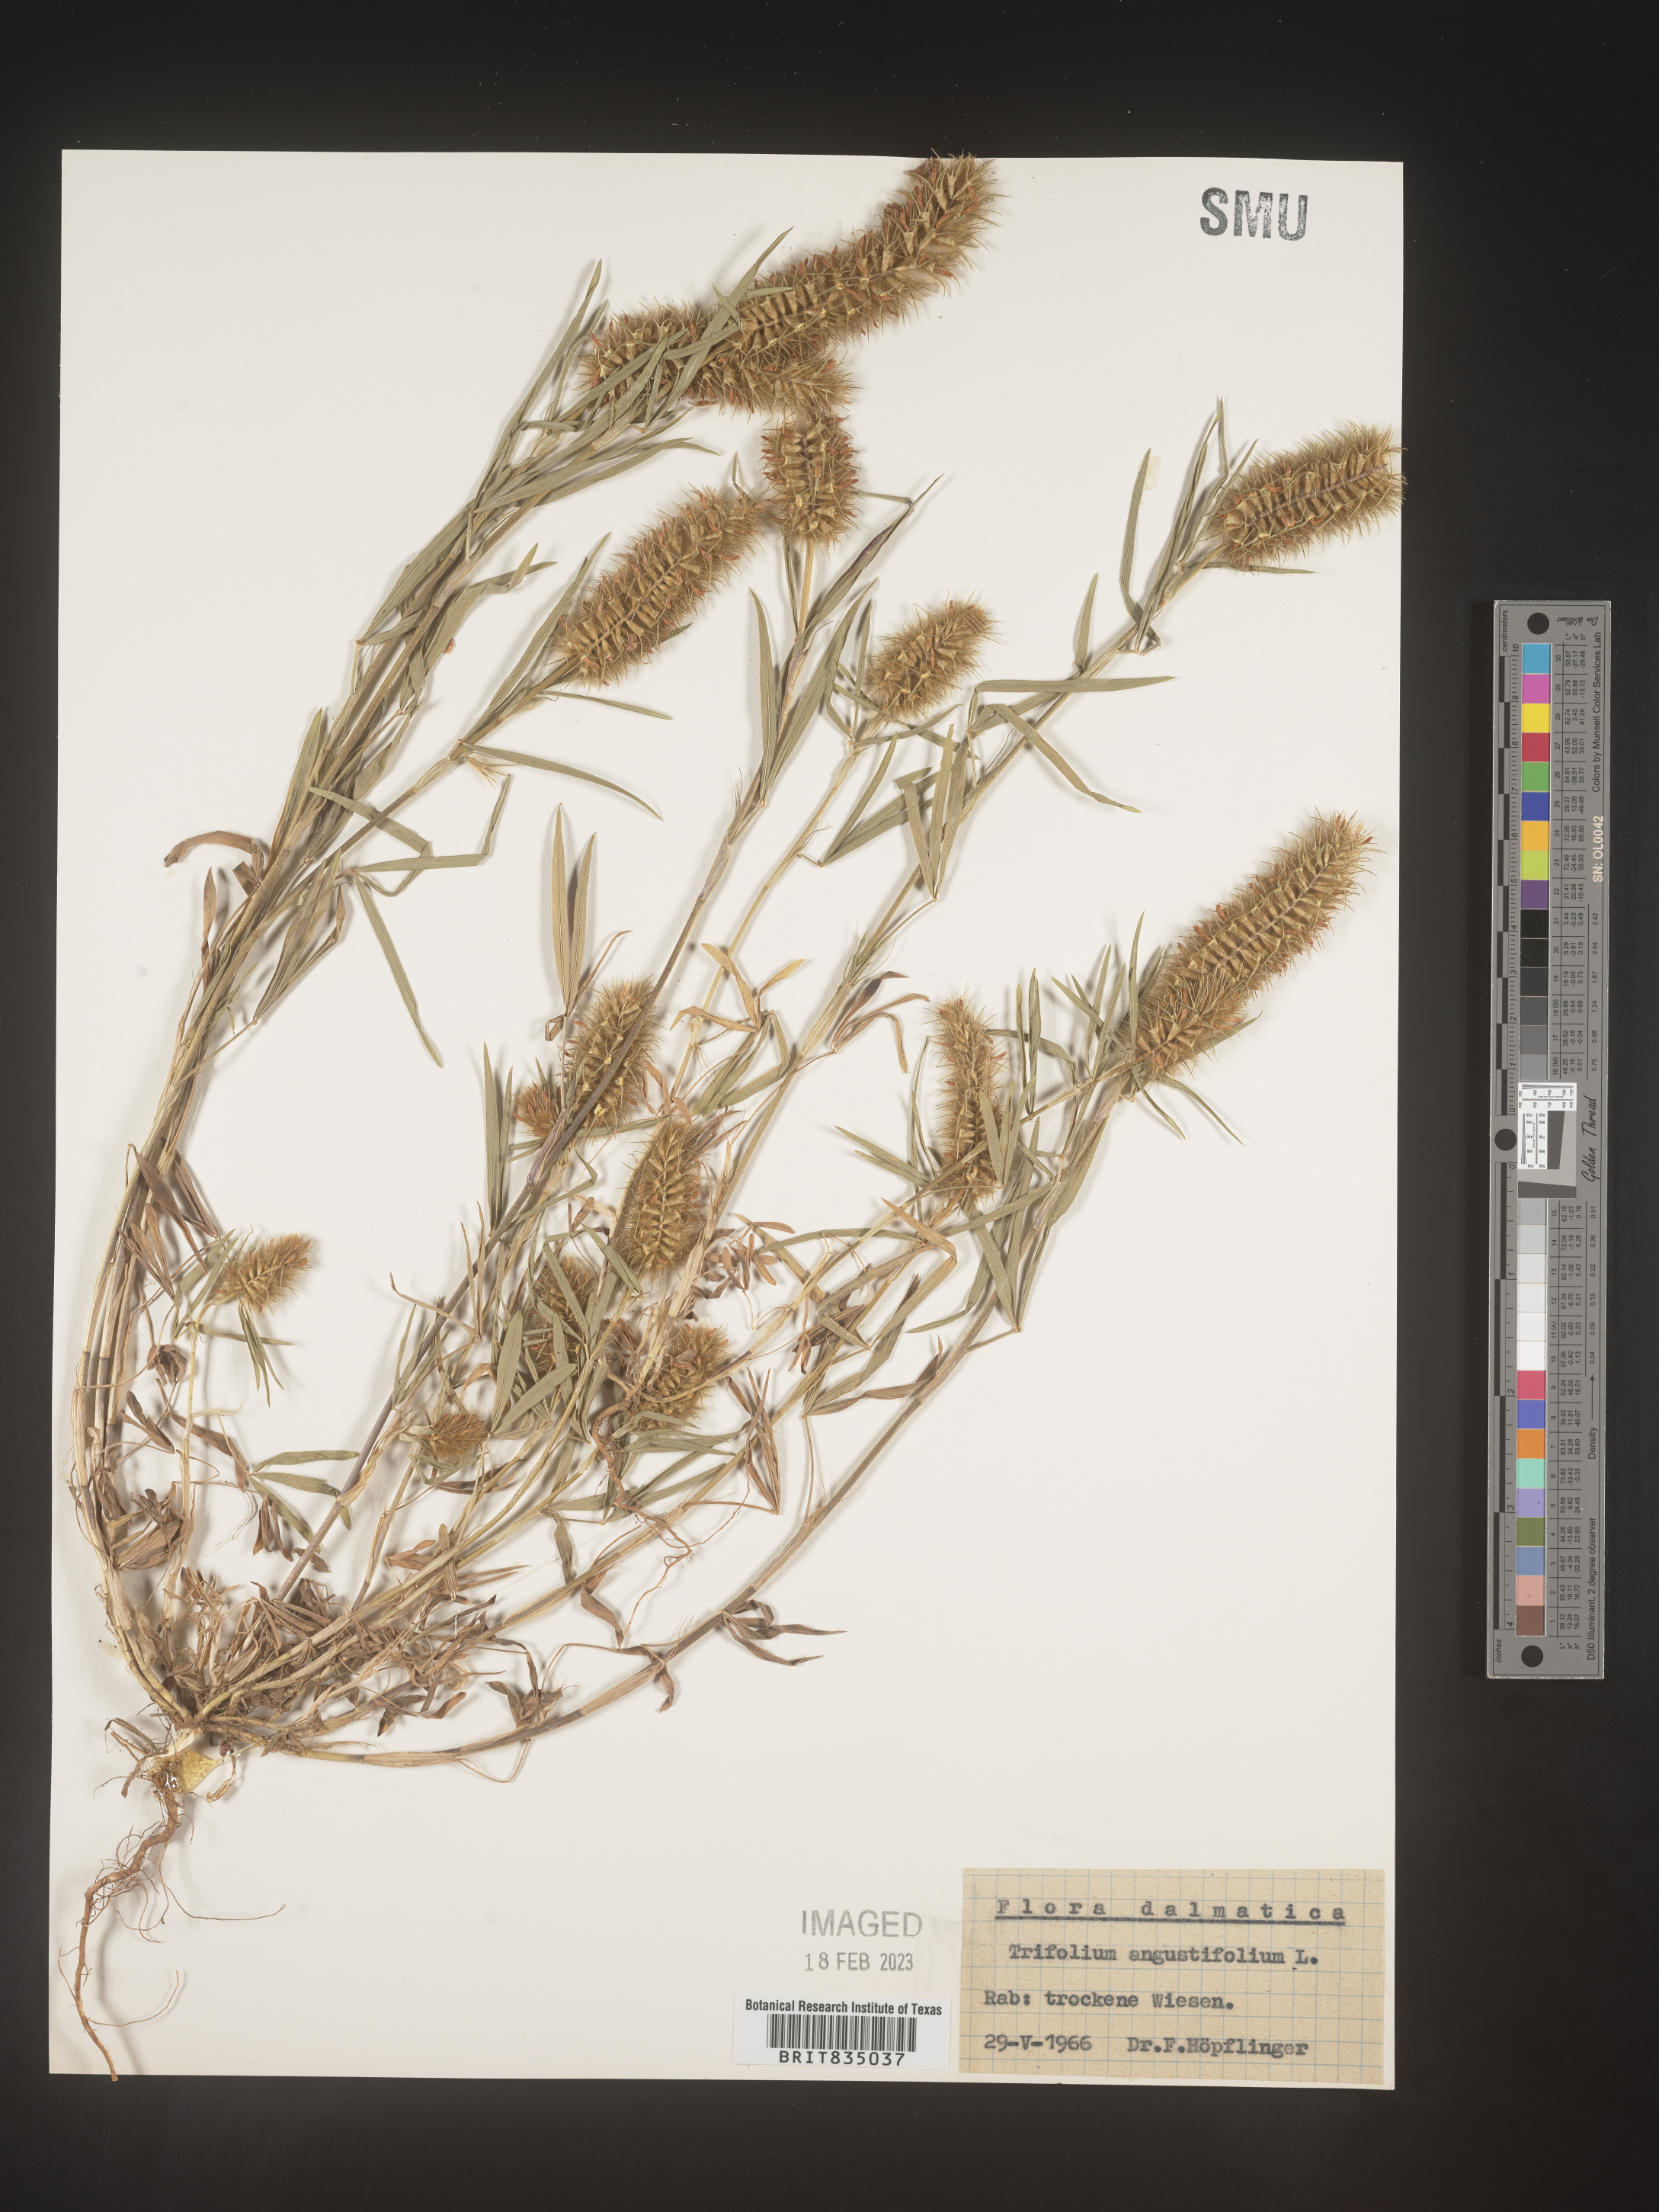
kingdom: Plantae
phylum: Tracheophyta
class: Magnoliopsida
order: Fabales
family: Fabaceae
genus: Trifolium
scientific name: Trifolium
